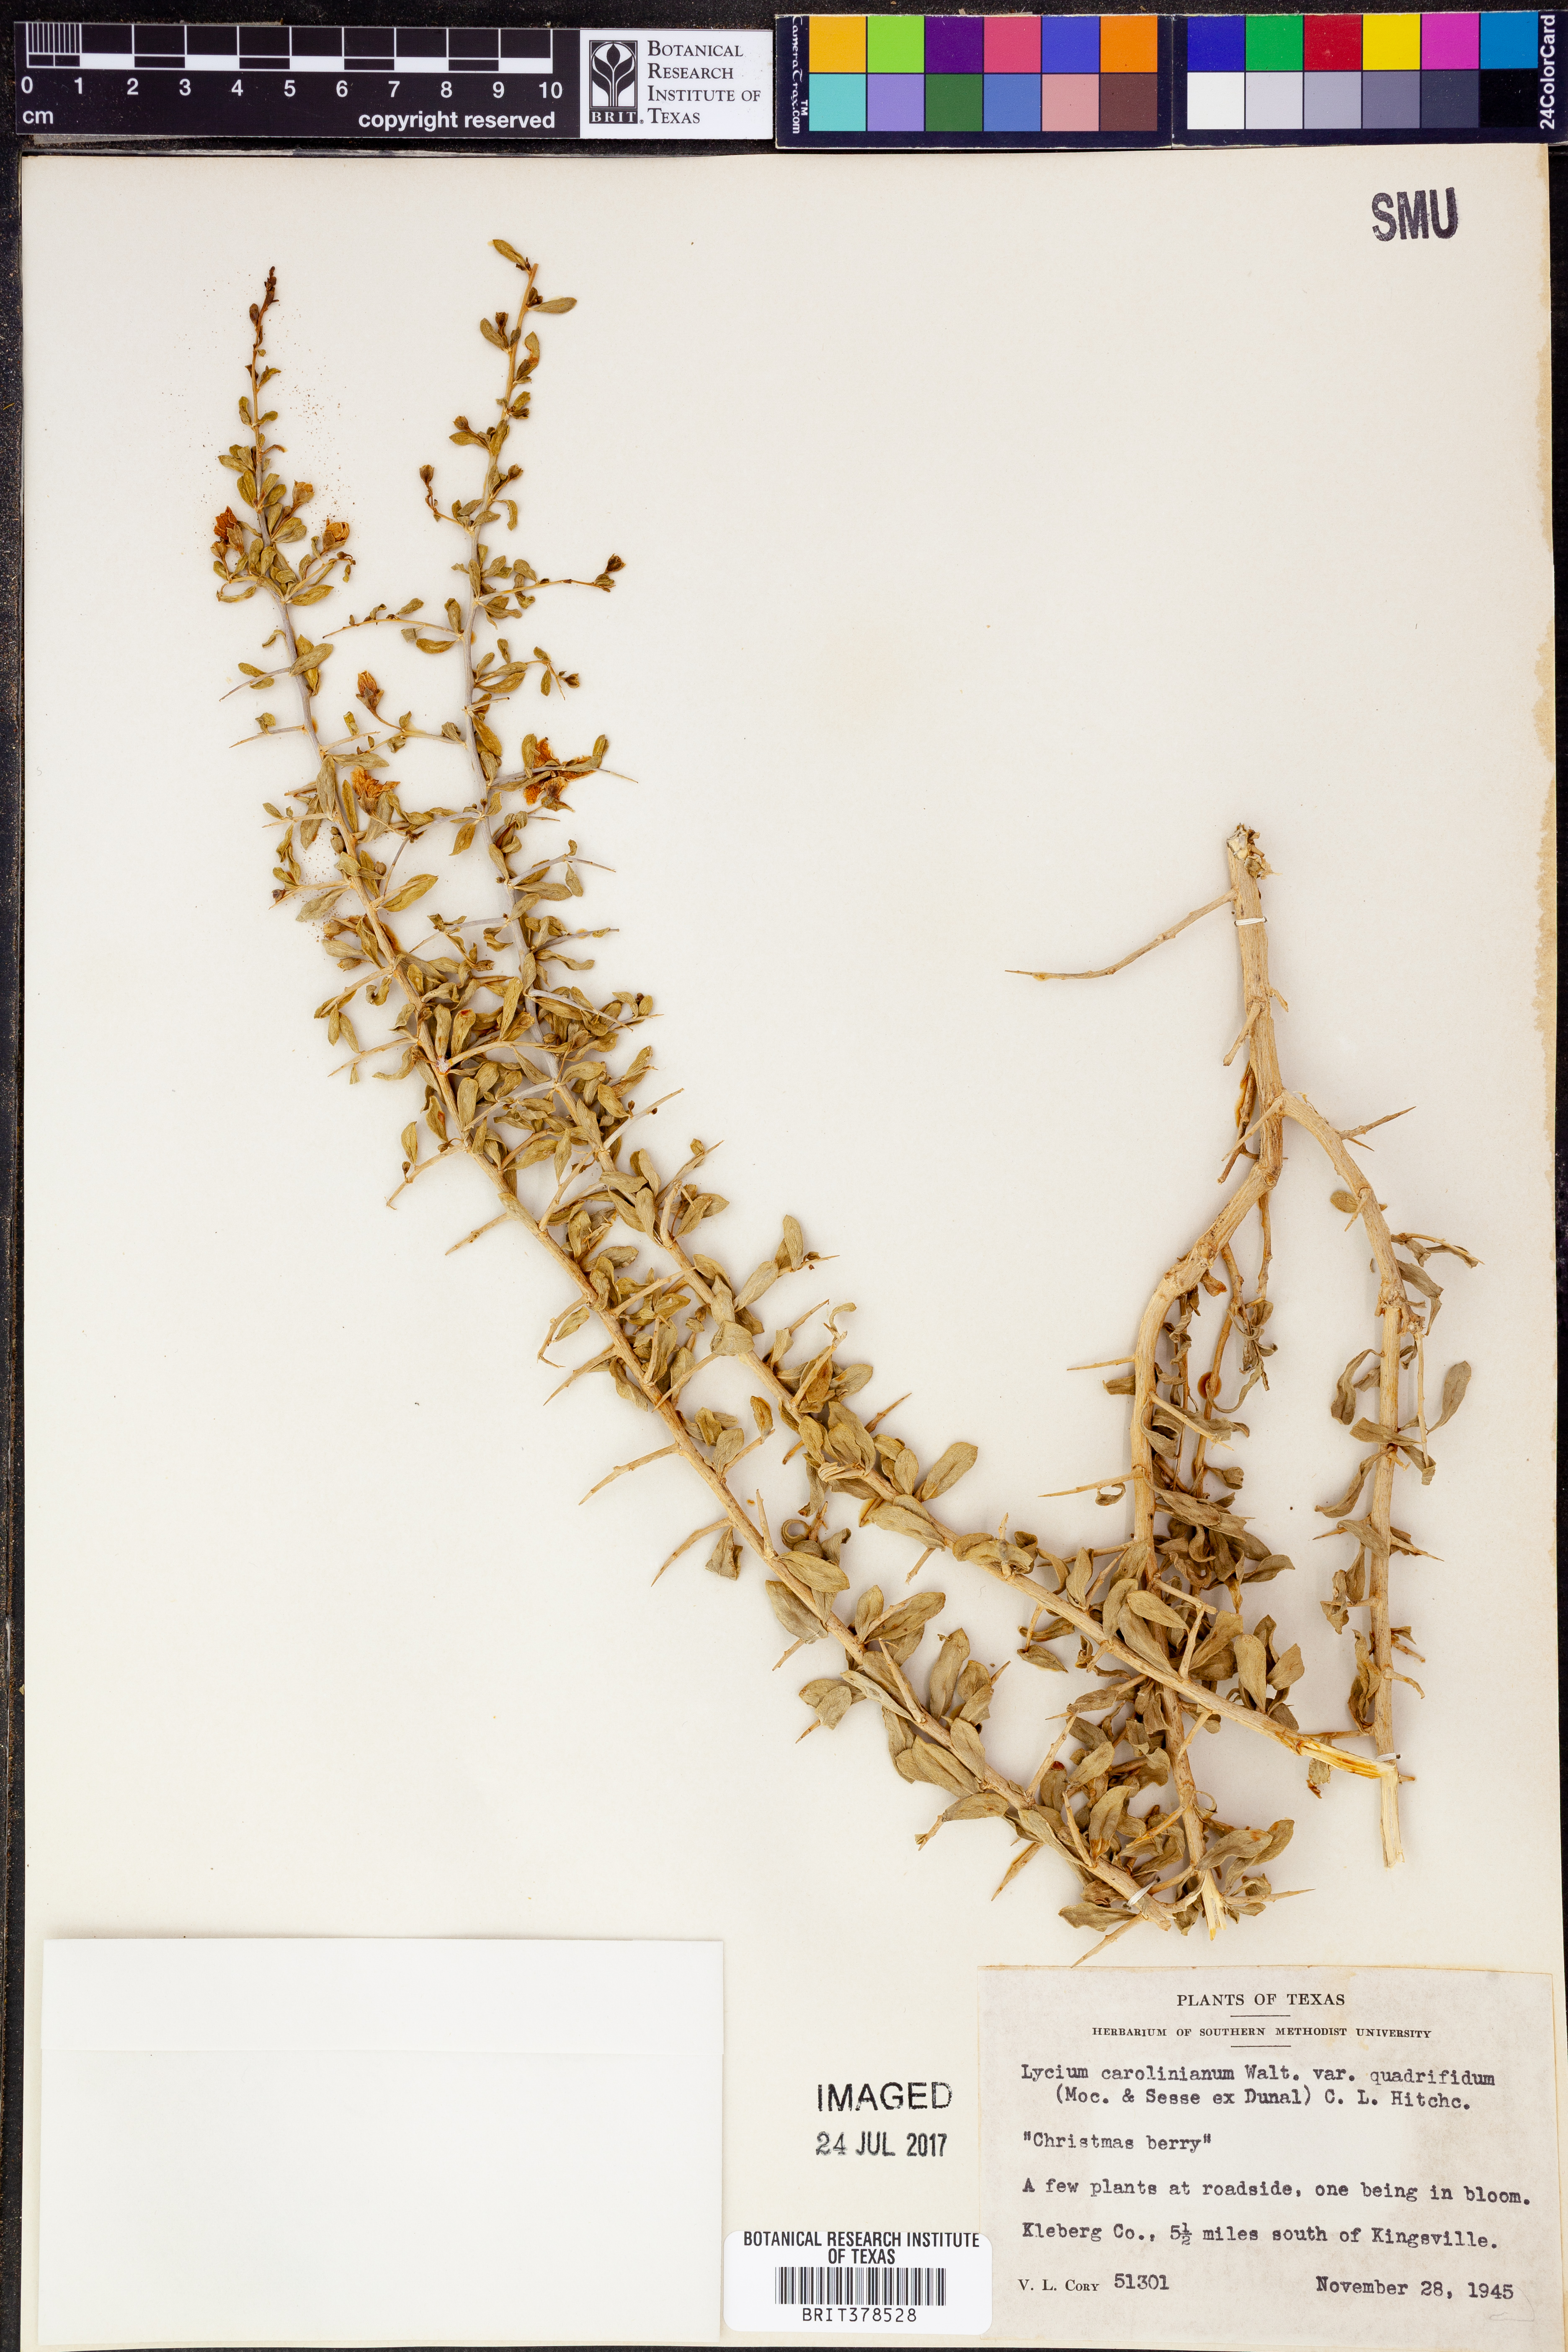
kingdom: Plantae
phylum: Tracheophyta
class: Magnoliopsida
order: Solanales
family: Solanaceae
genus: Lycium
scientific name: Lycium carolinianum
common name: Christmasberry
